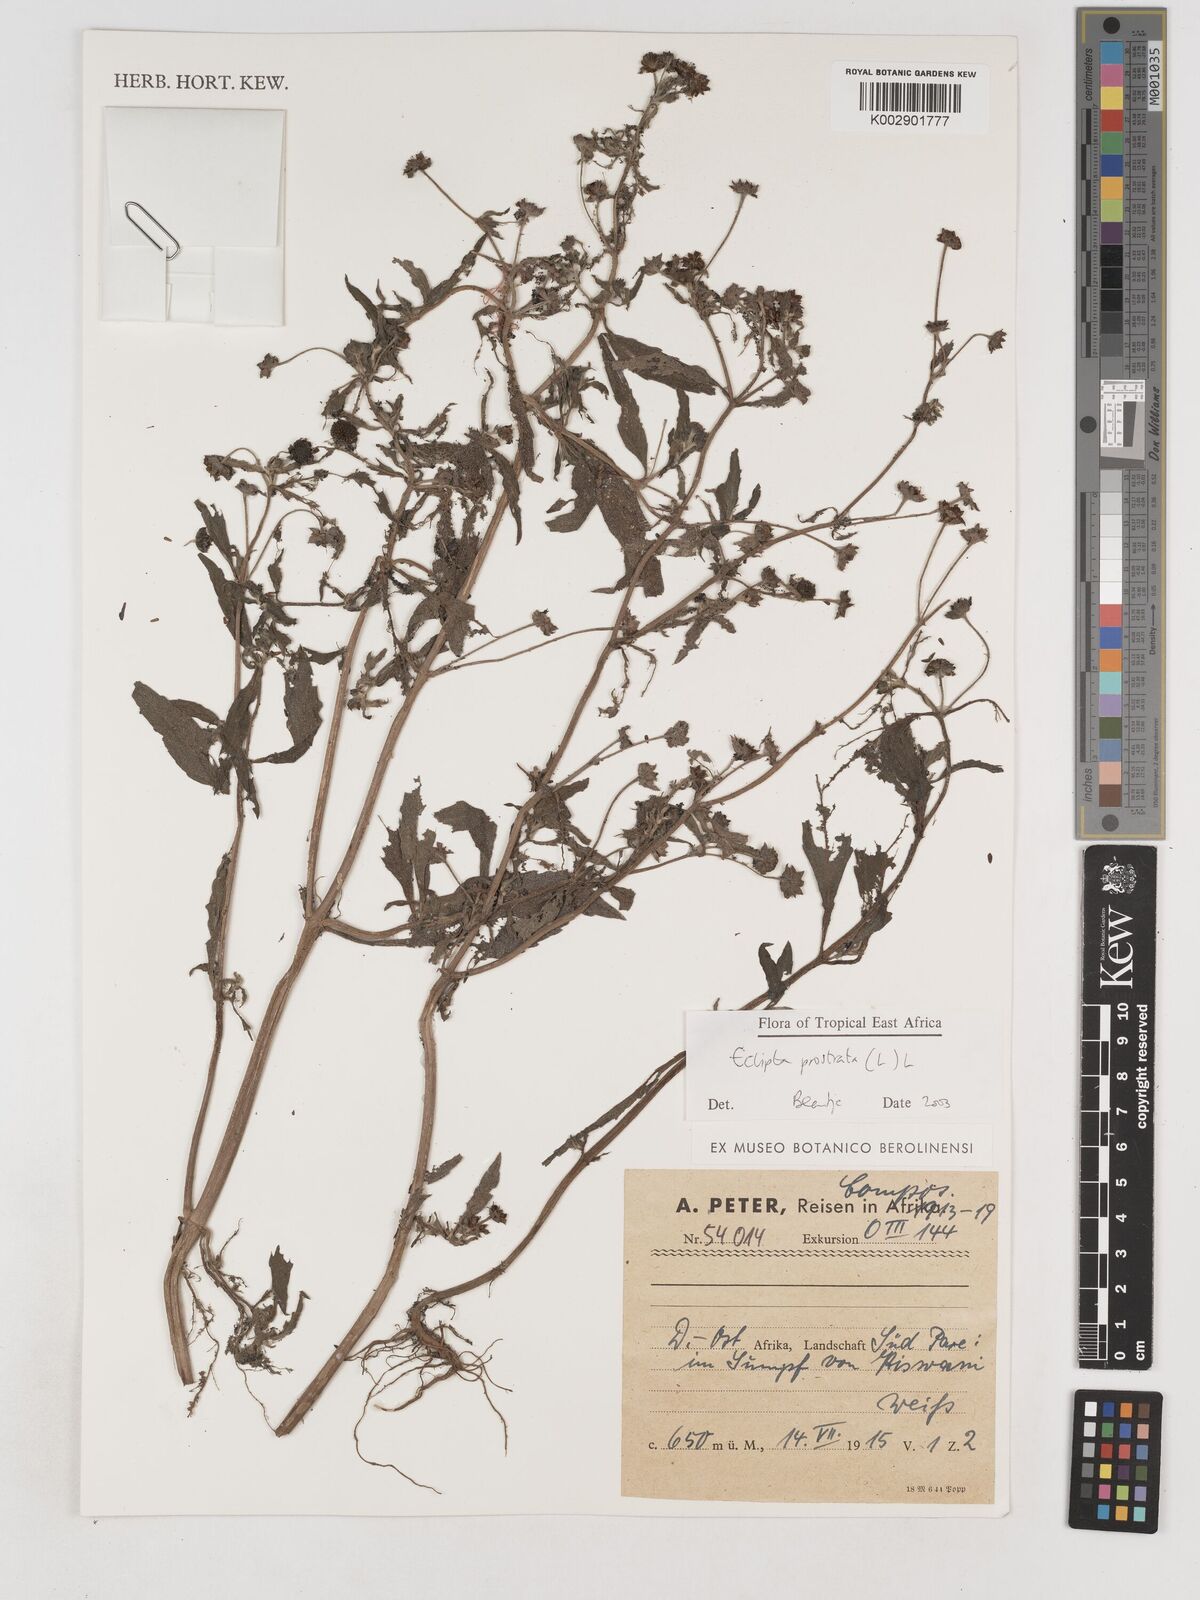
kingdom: Plantae
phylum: Tracheophyta
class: Magnoliopsida
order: Asterales
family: Asteraceae
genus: Eclipta
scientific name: Eclipta alba
